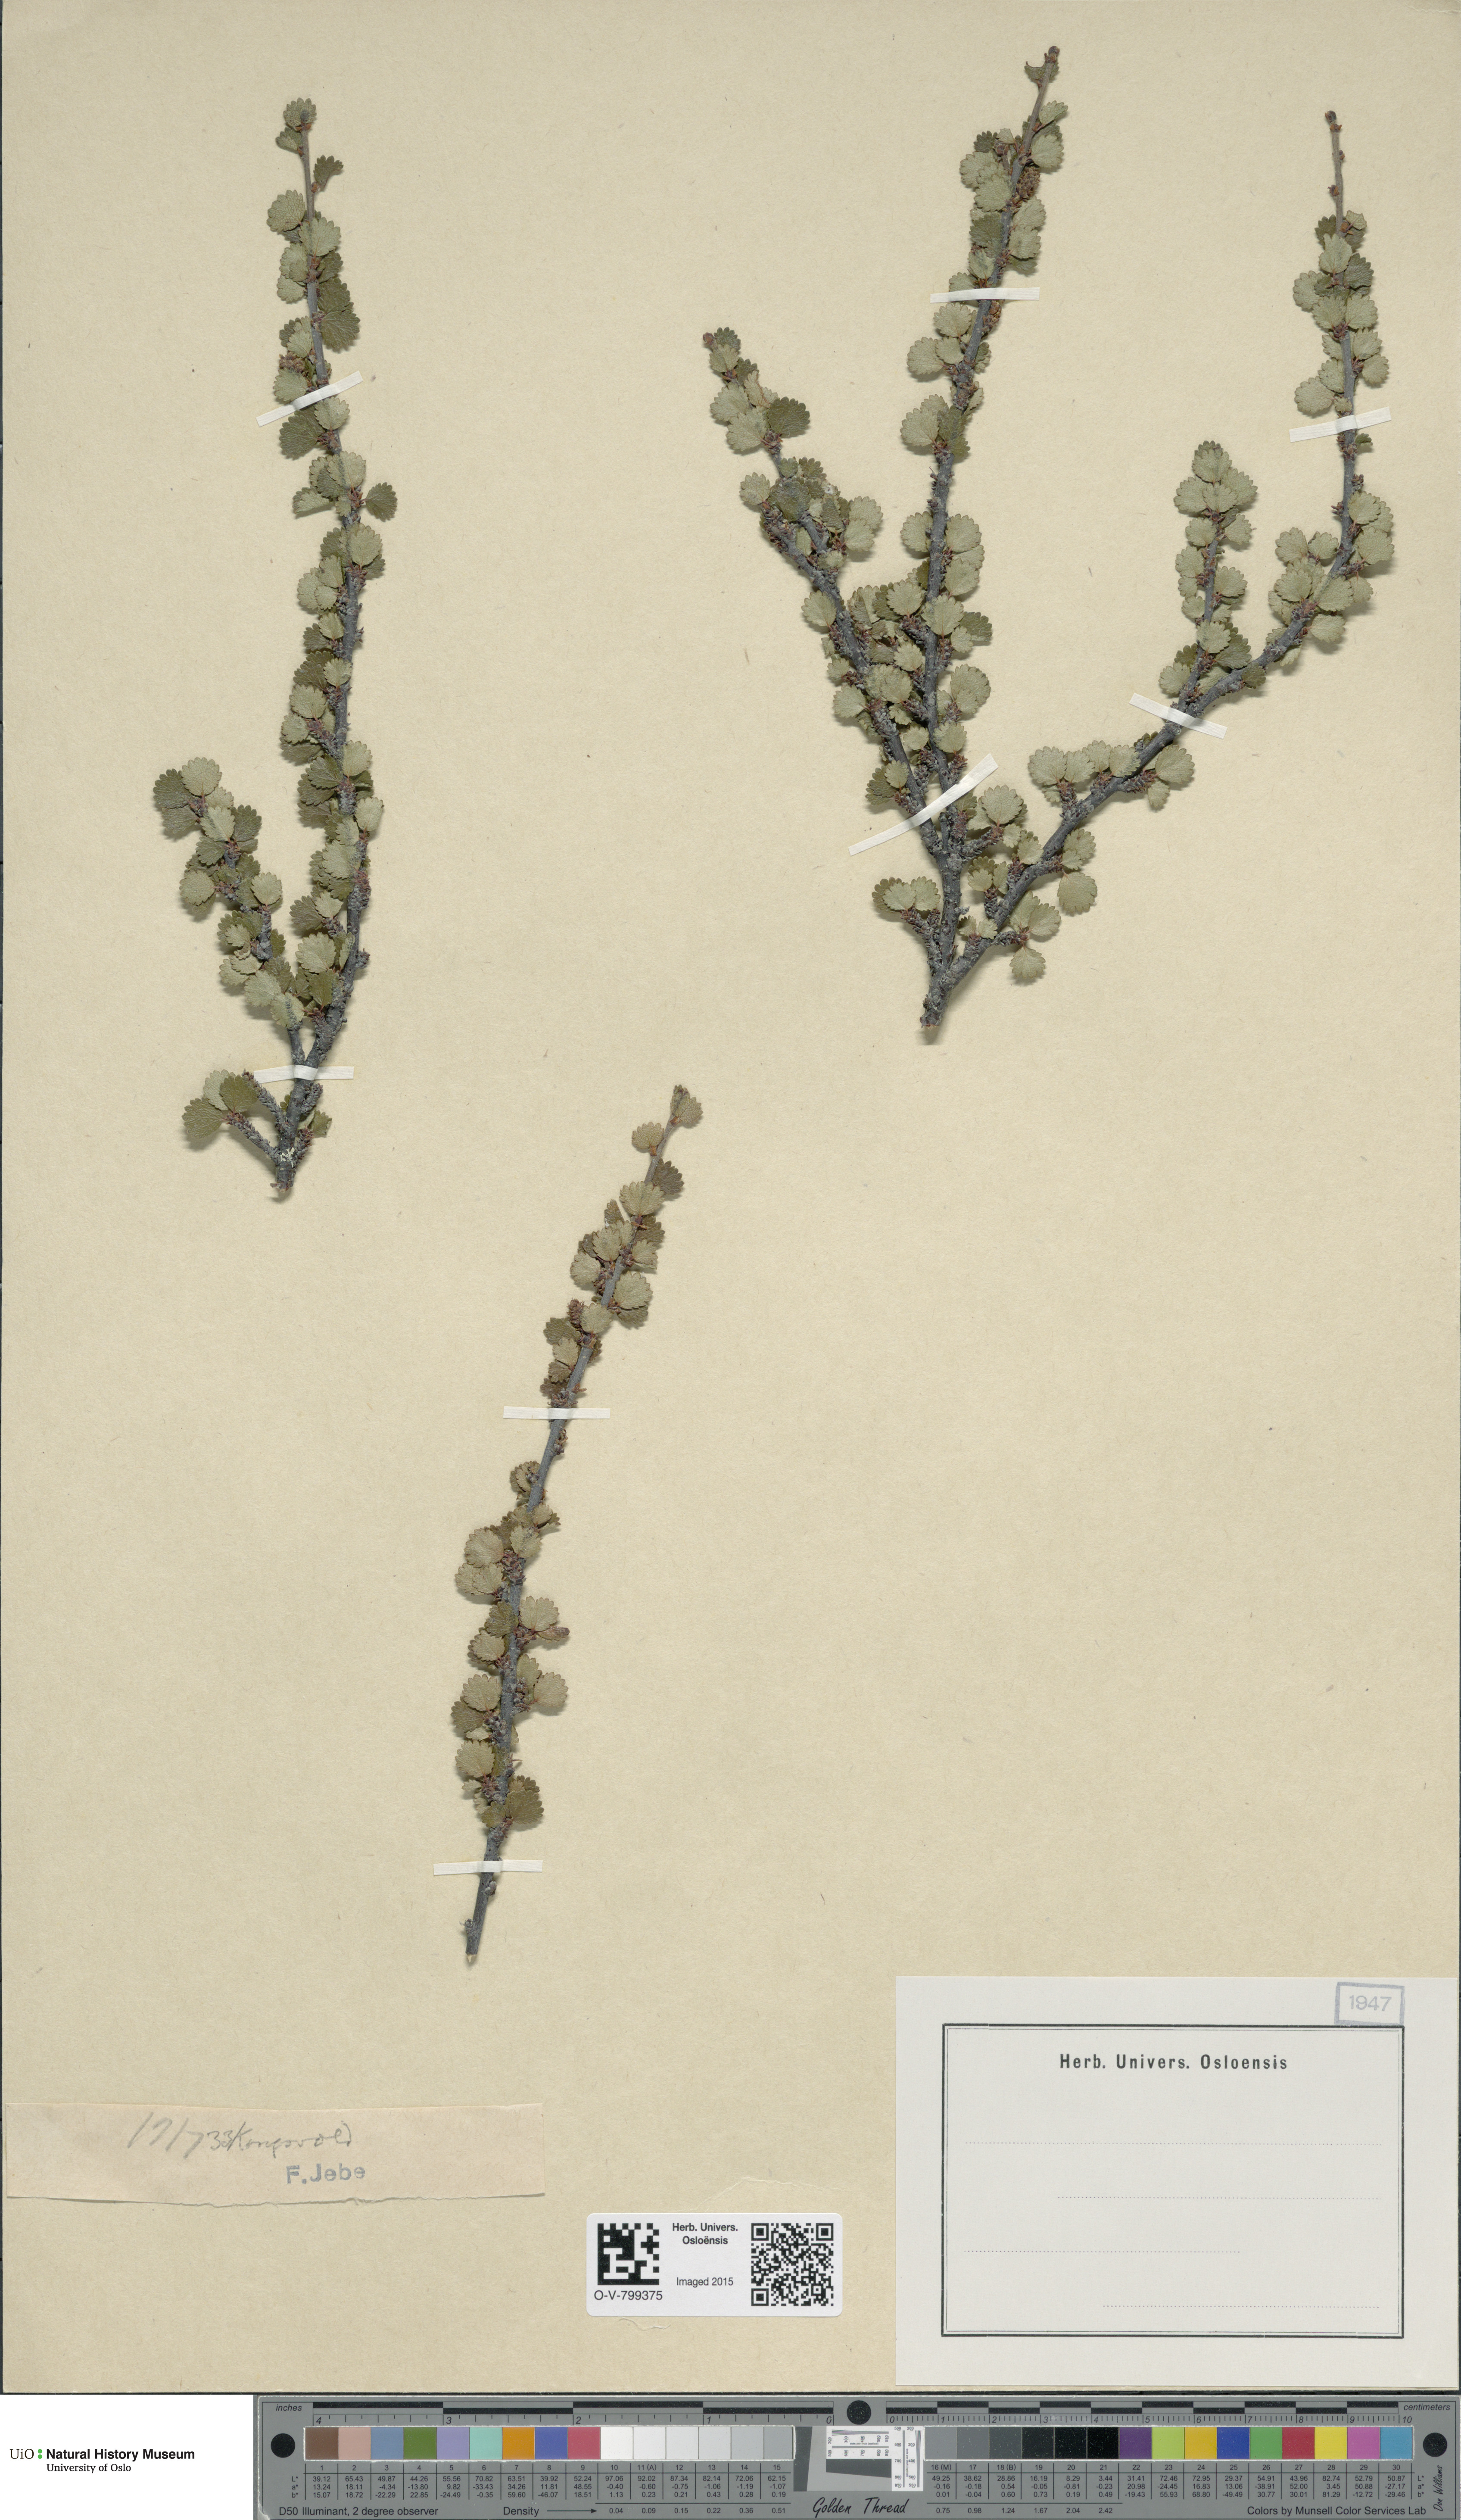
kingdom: Plantae
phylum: Tracheophyta
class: Magnoliopsida
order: Fagales
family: Betulaceae
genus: Betula
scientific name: Betula nana
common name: Arctic dwarf birch
